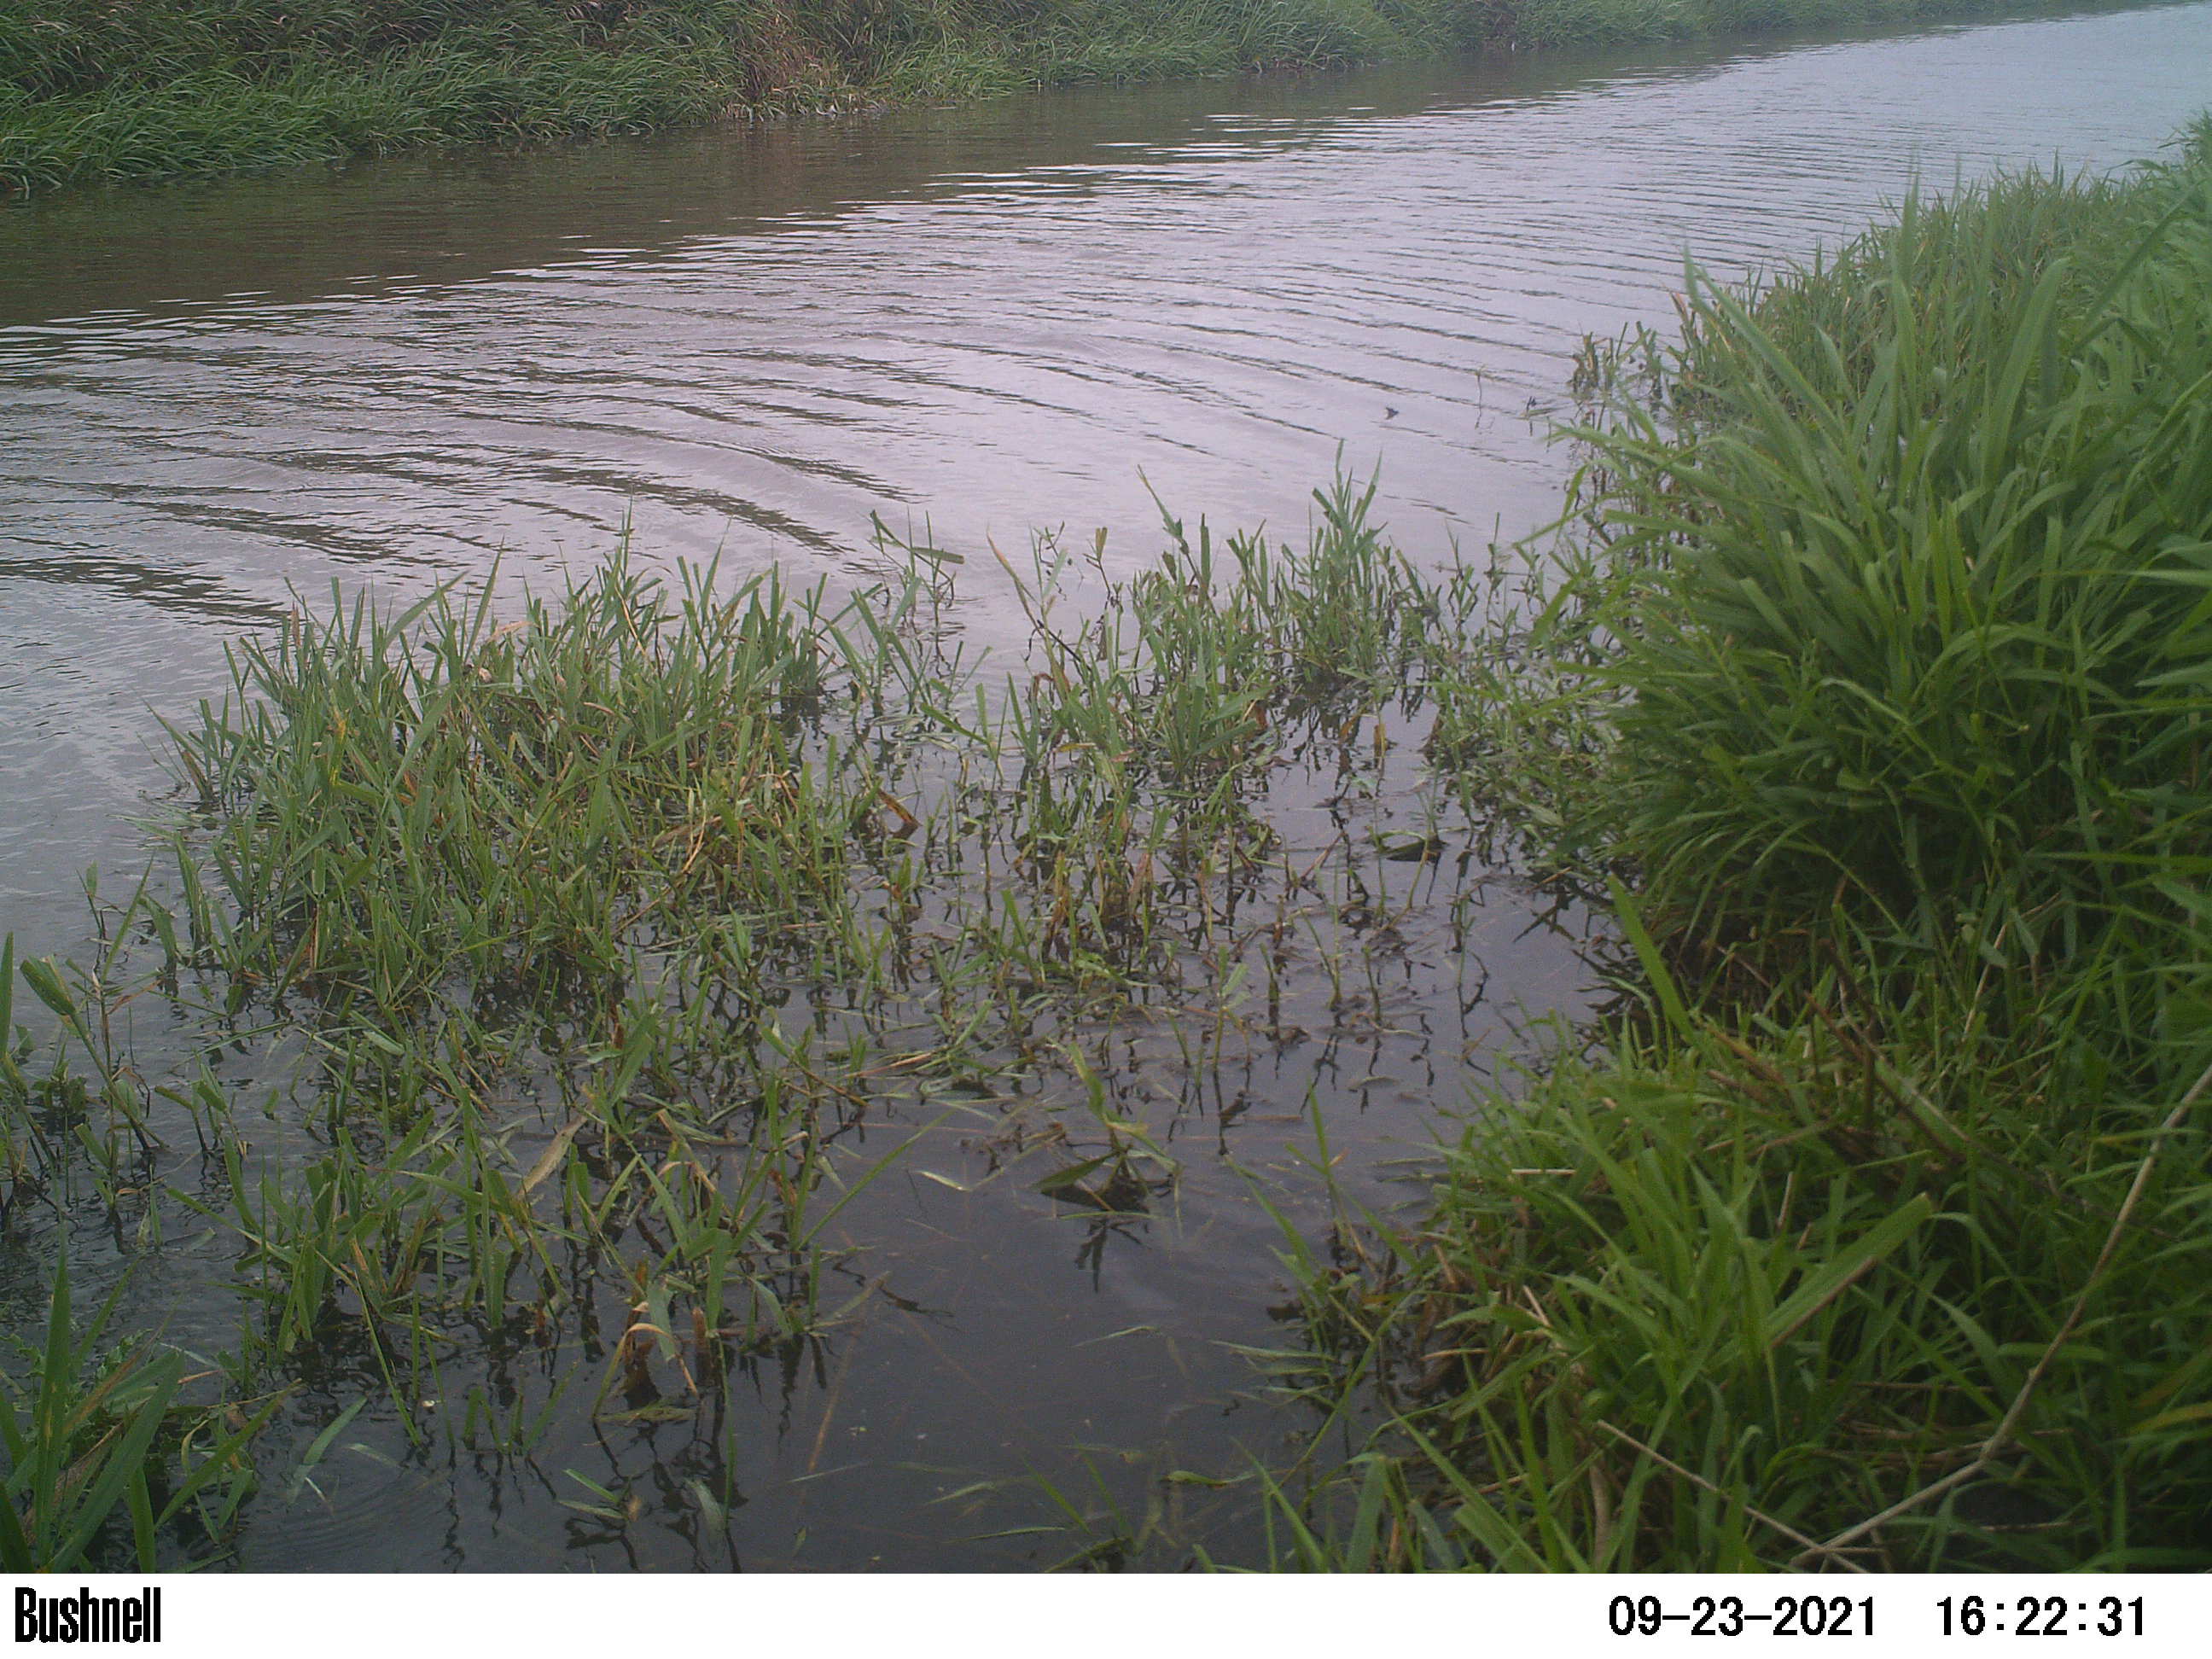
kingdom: Animalia
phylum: Chordata
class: Aves
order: Gruiformes
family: Rallidae
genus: Fulica
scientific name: Fulica atra
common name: Eurasian coot
